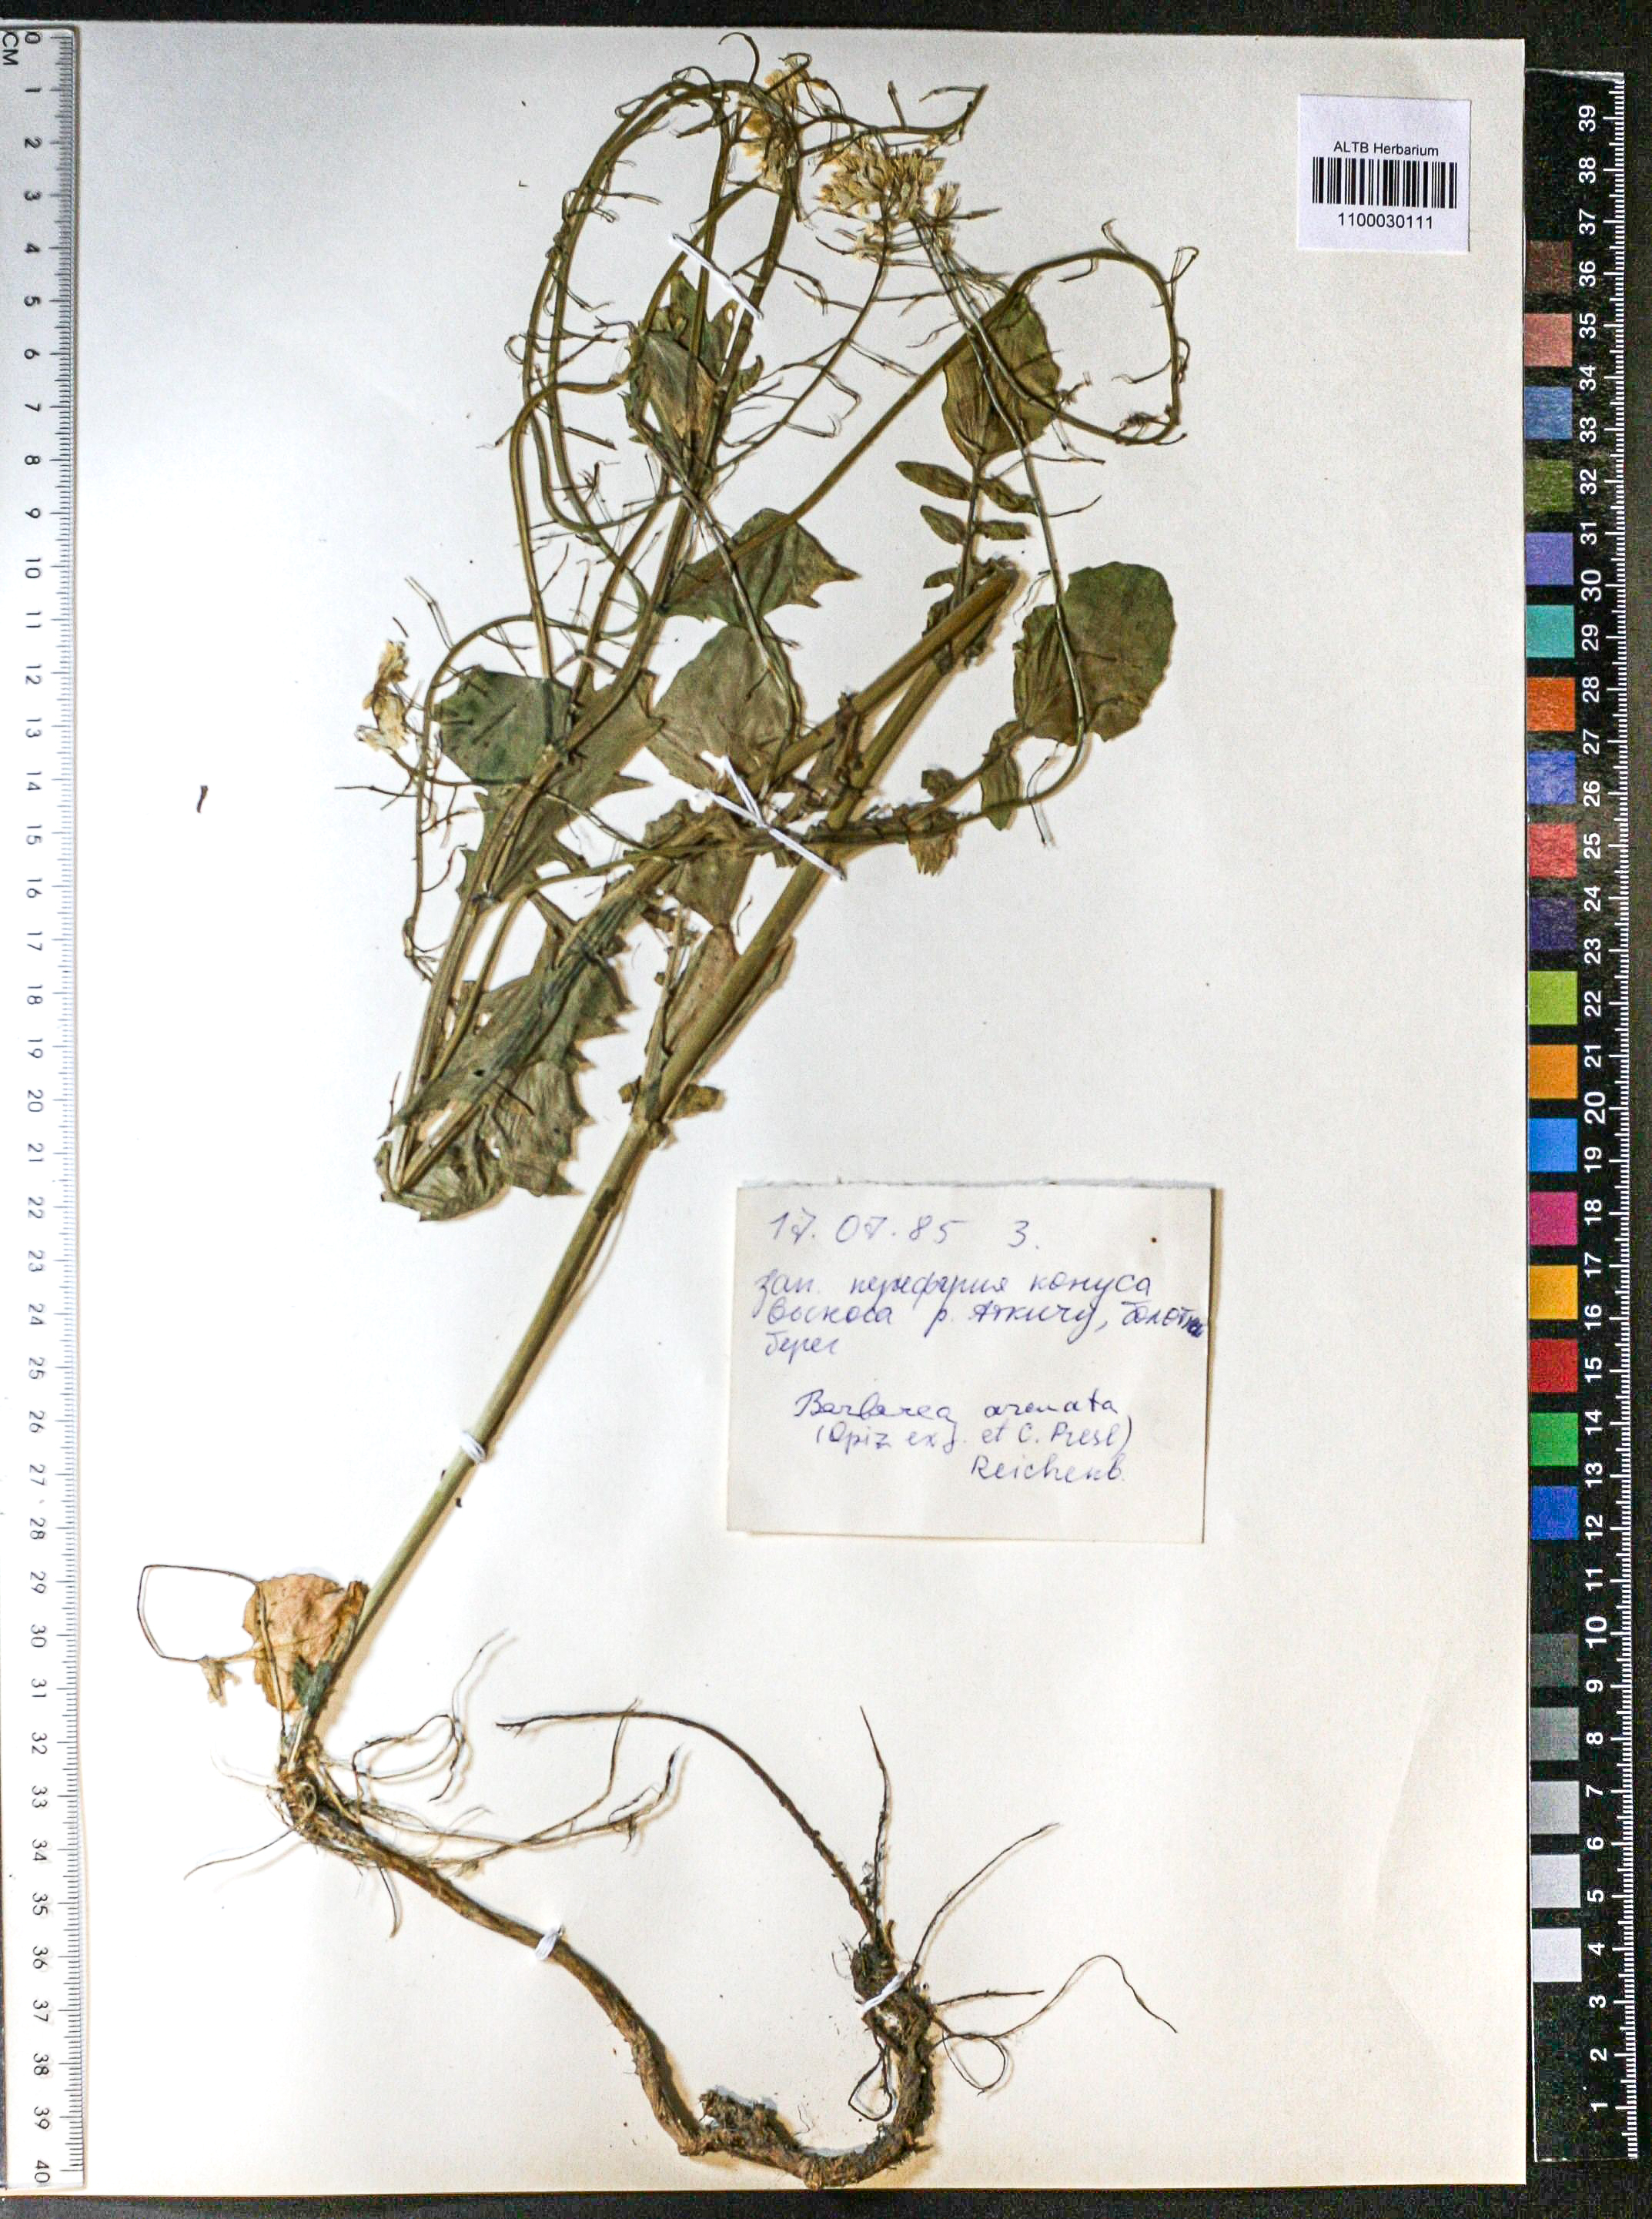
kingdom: Plantae
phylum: Tracheophyta
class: Magnoliopsida
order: Brassicales
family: Brassicaceae
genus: Barbarea
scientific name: Barbarea vulgaris
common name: Cressy-greens
